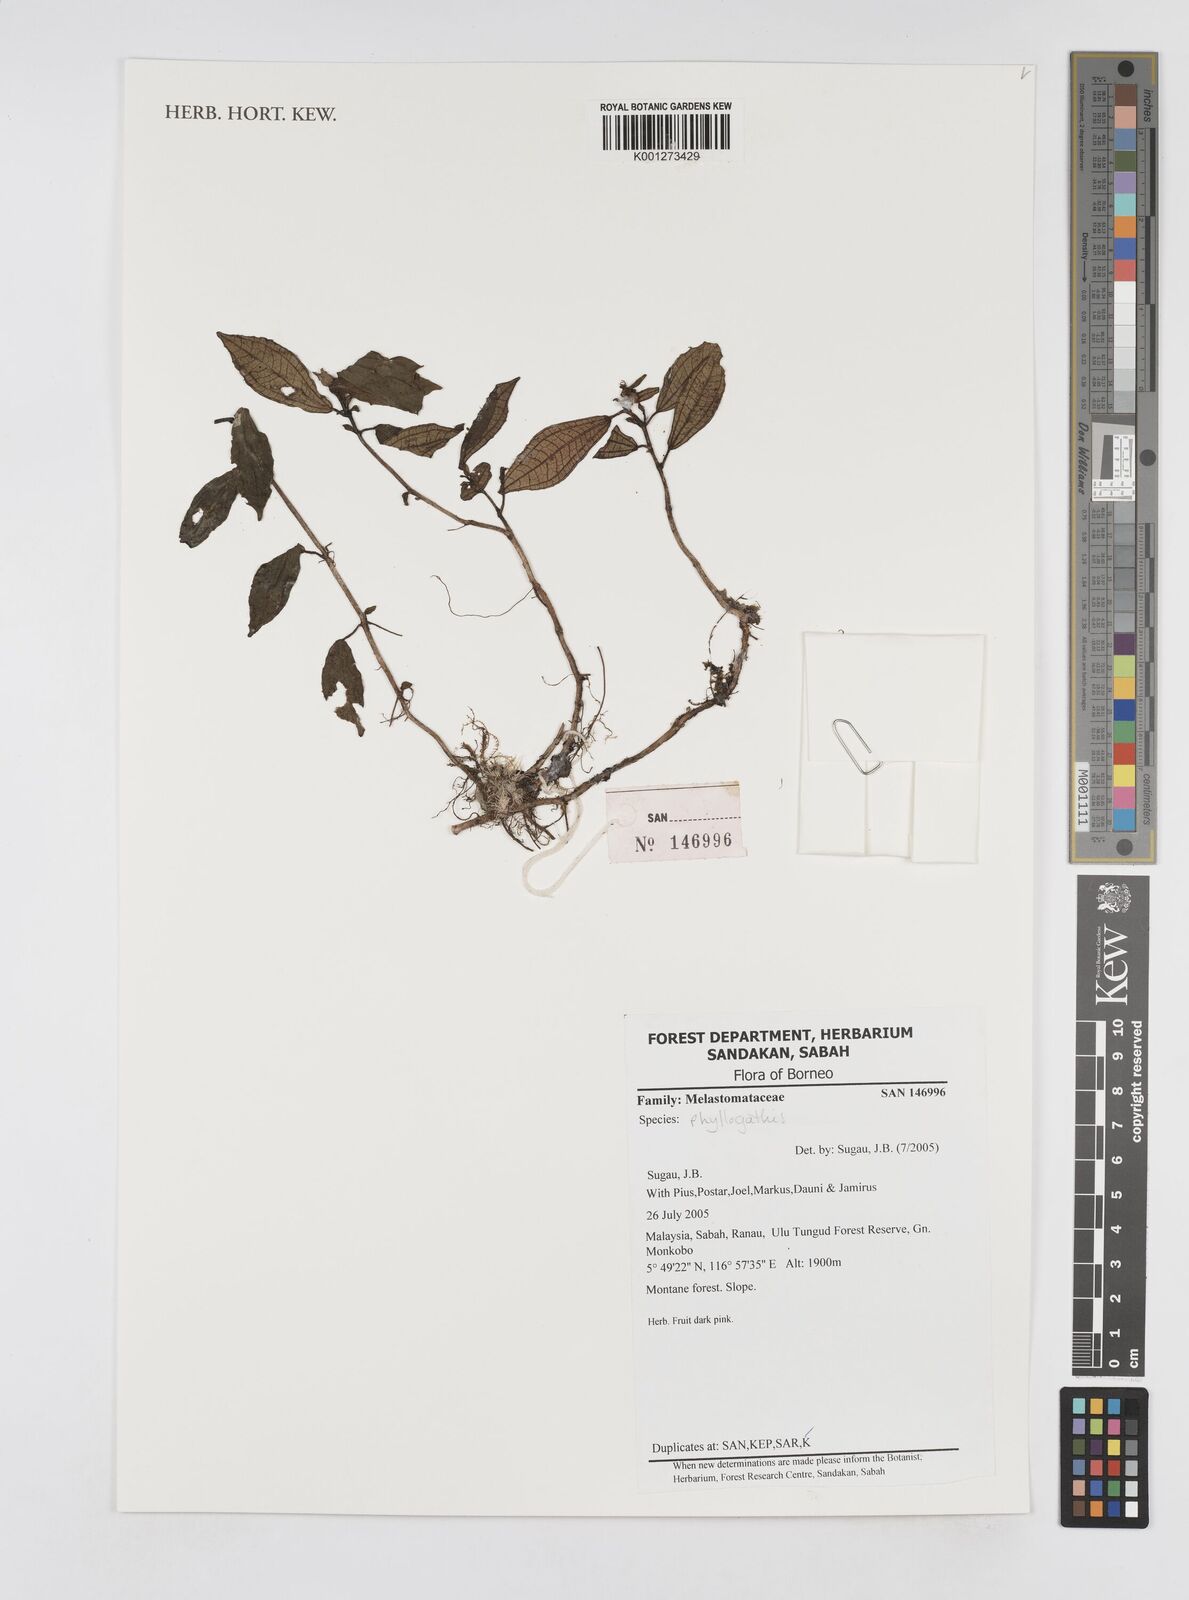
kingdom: Plantae
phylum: Tracheophyta
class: Magnoliopsida
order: Myrtales
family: Melastomataceae
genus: Phyllagathis
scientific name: Phyllagathis
